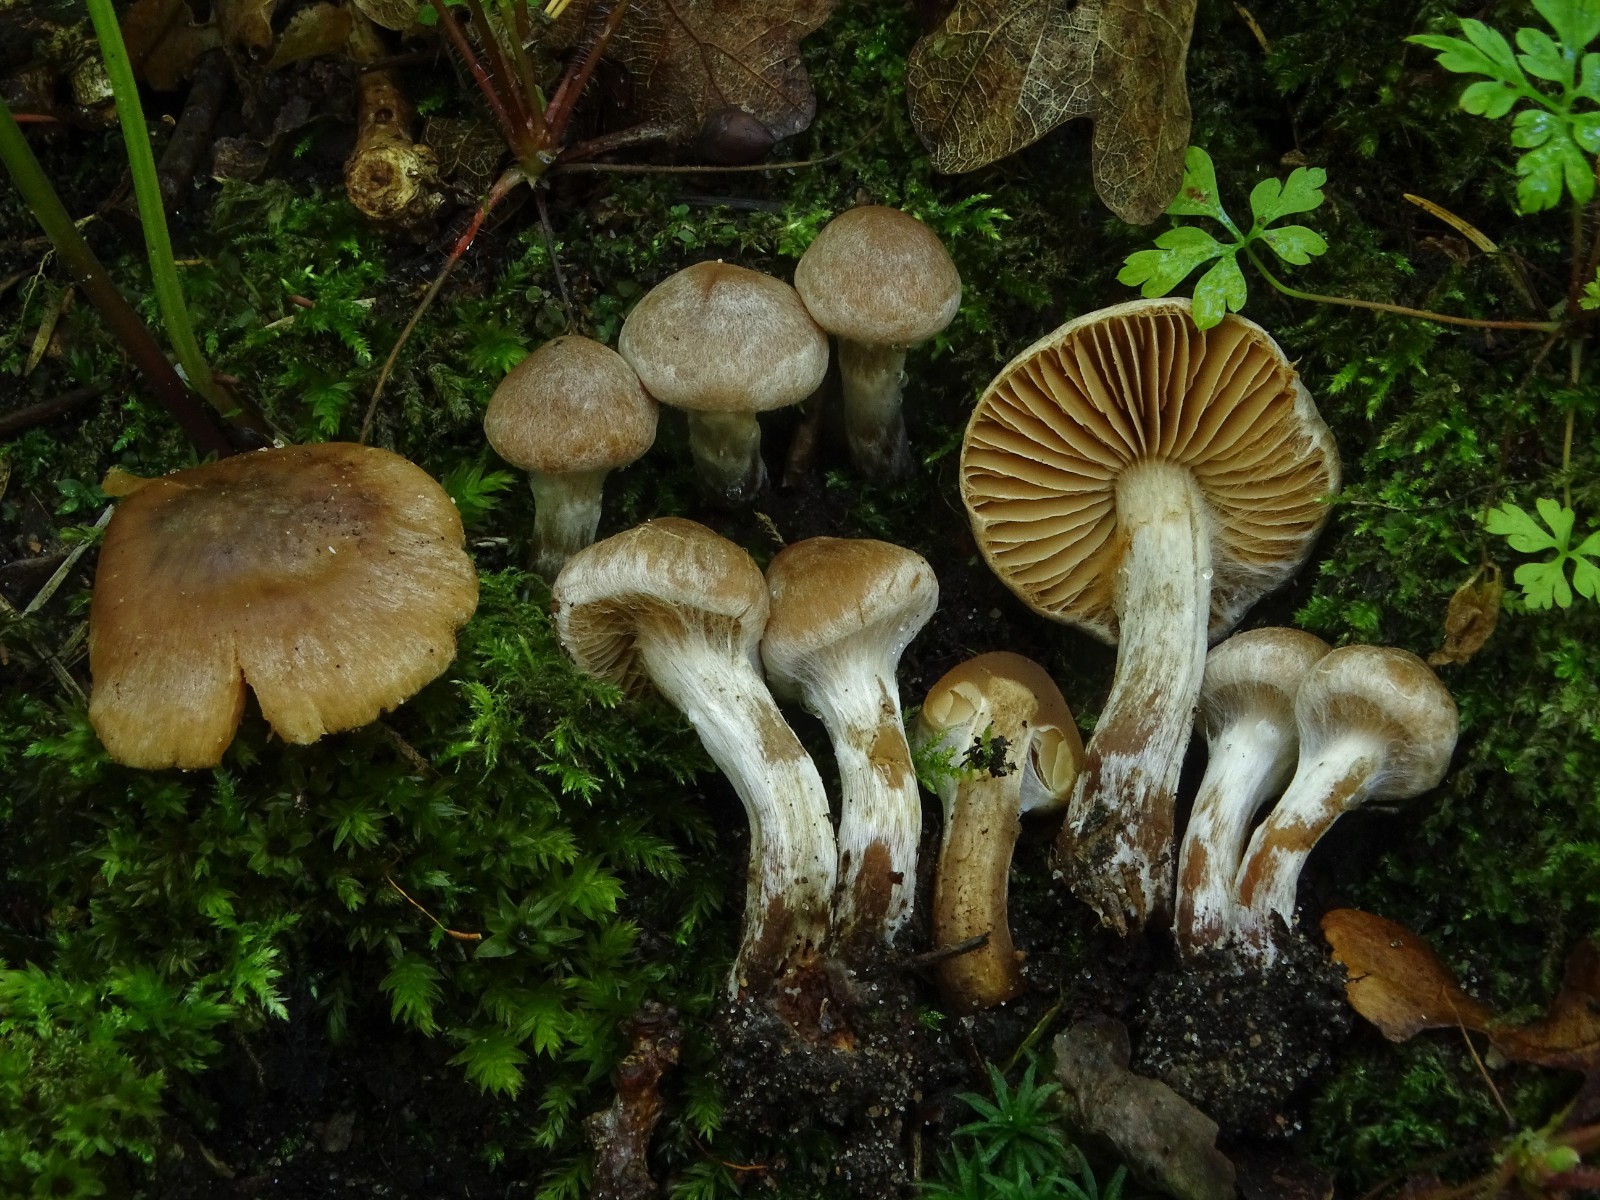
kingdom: Fungi
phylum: Basidiomycota
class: Agaricomycetes
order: Agaricales
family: Cortinariaceae
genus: Cortinarius
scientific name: Cortinarius
